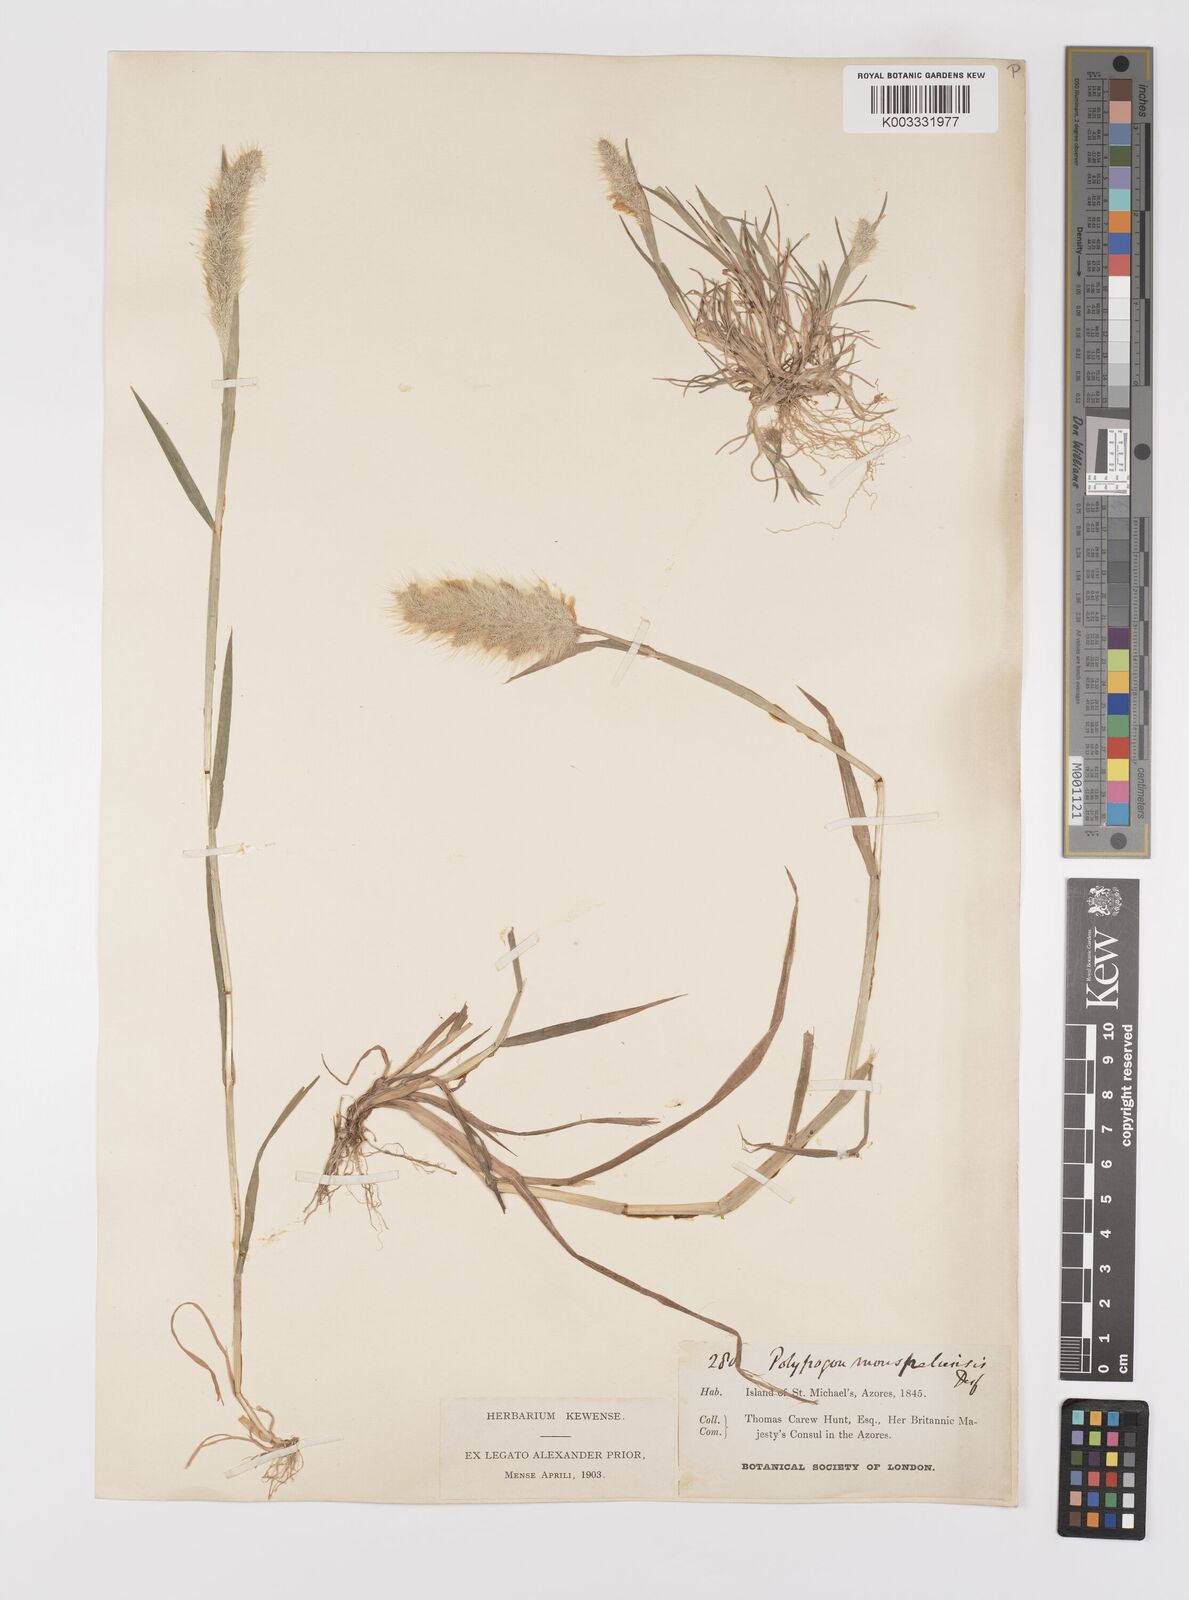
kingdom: Plantae
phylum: Tracheophyta
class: Liliopsida
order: Poales
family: Poaceae
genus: Polypogon
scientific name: Polypogon monspeliensis
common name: Annual rabbitsfoot grass
